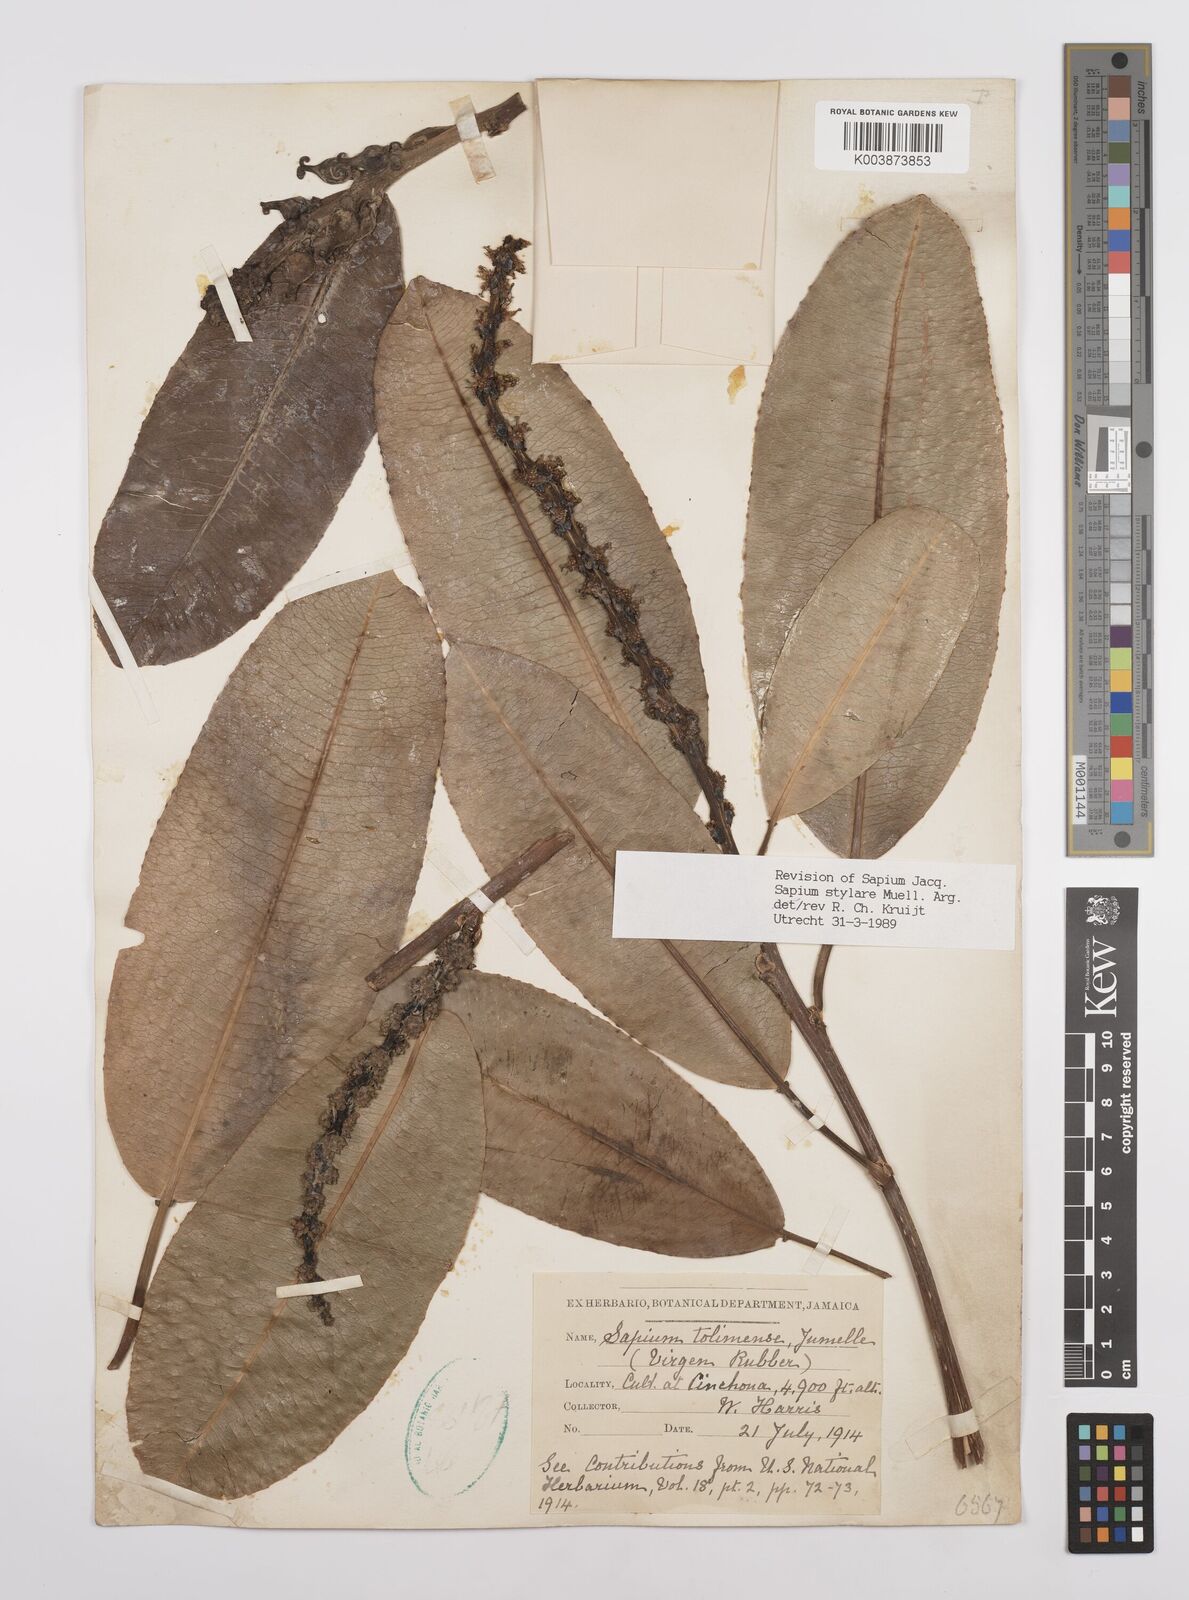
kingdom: Plantae
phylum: Tracheophyta
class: Magnoliopsida
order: Malpighiales
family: Euphorbiaceae
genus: Sapium
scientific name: Sapium stylare
